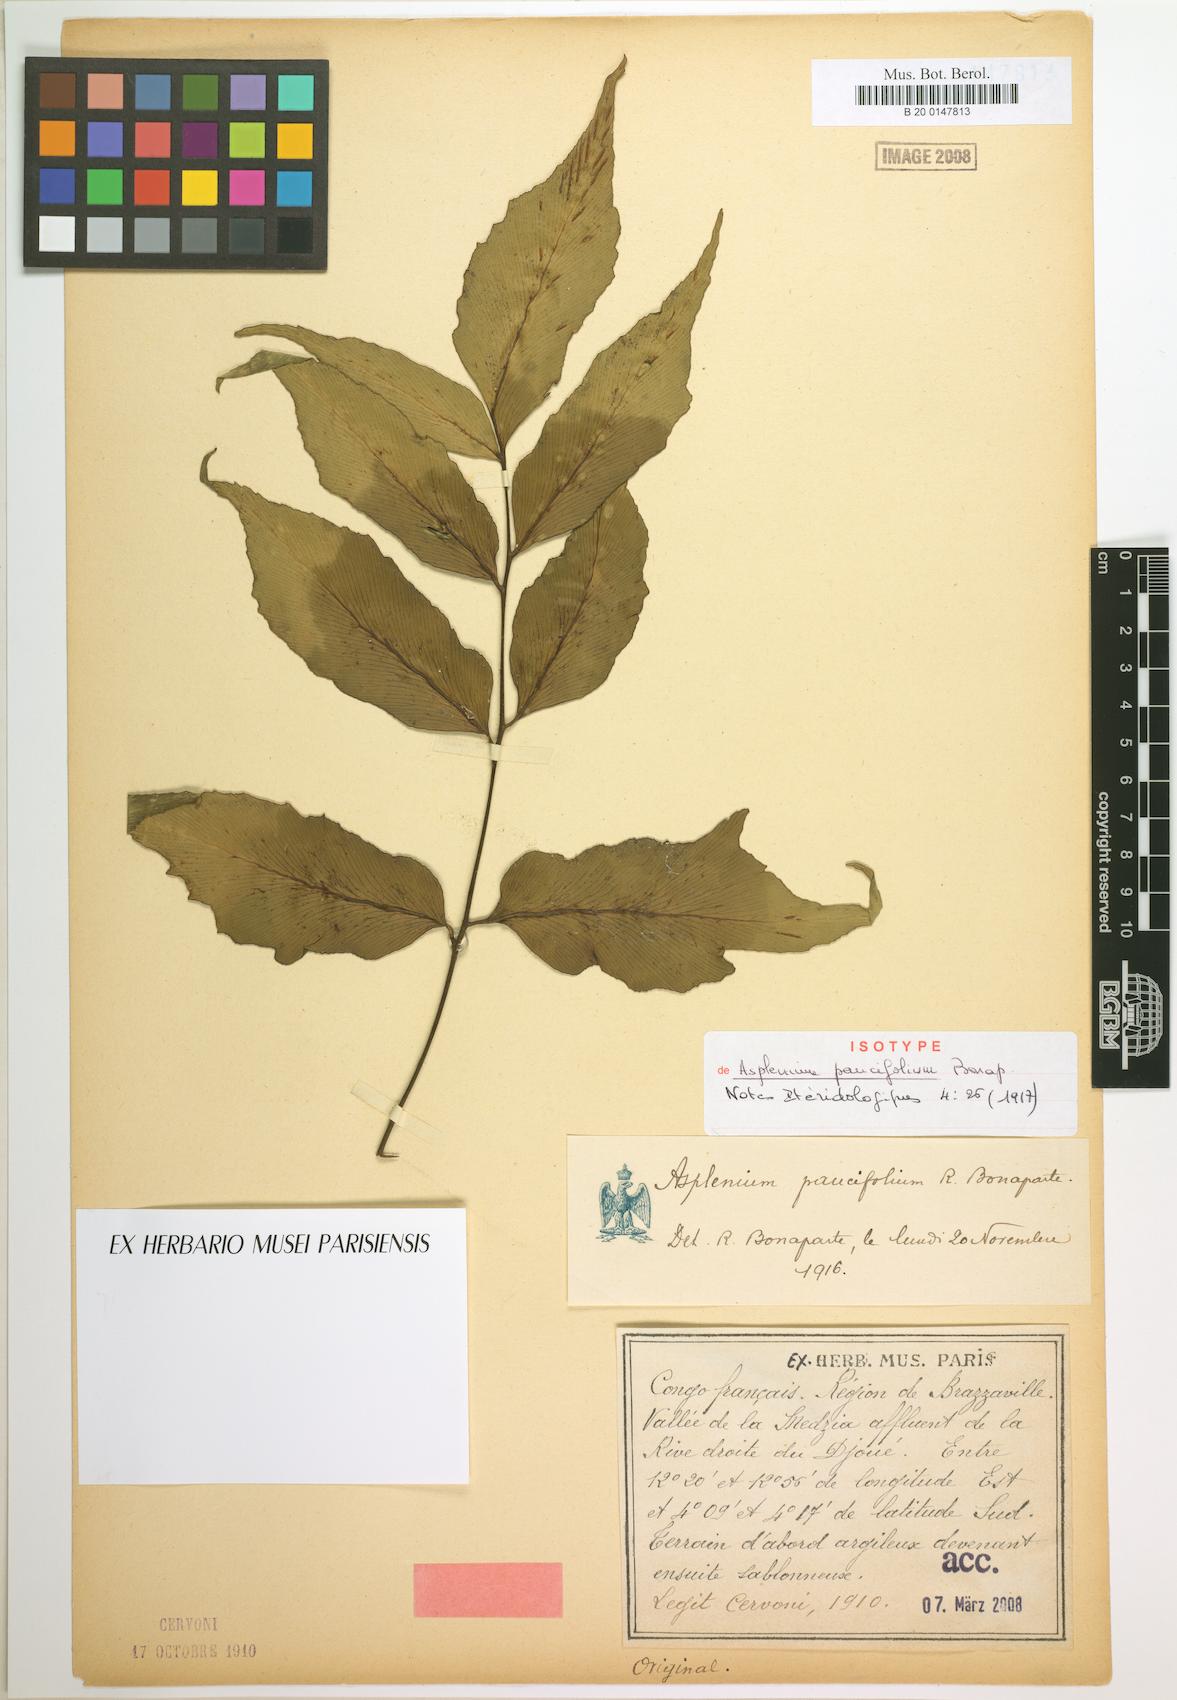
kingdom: Plantae
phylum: Tracheophyta
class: Polypodiopsida
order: Polypodiales
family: Aspleniaceae
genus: Asplenium
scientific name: Asplenium paucifolium
